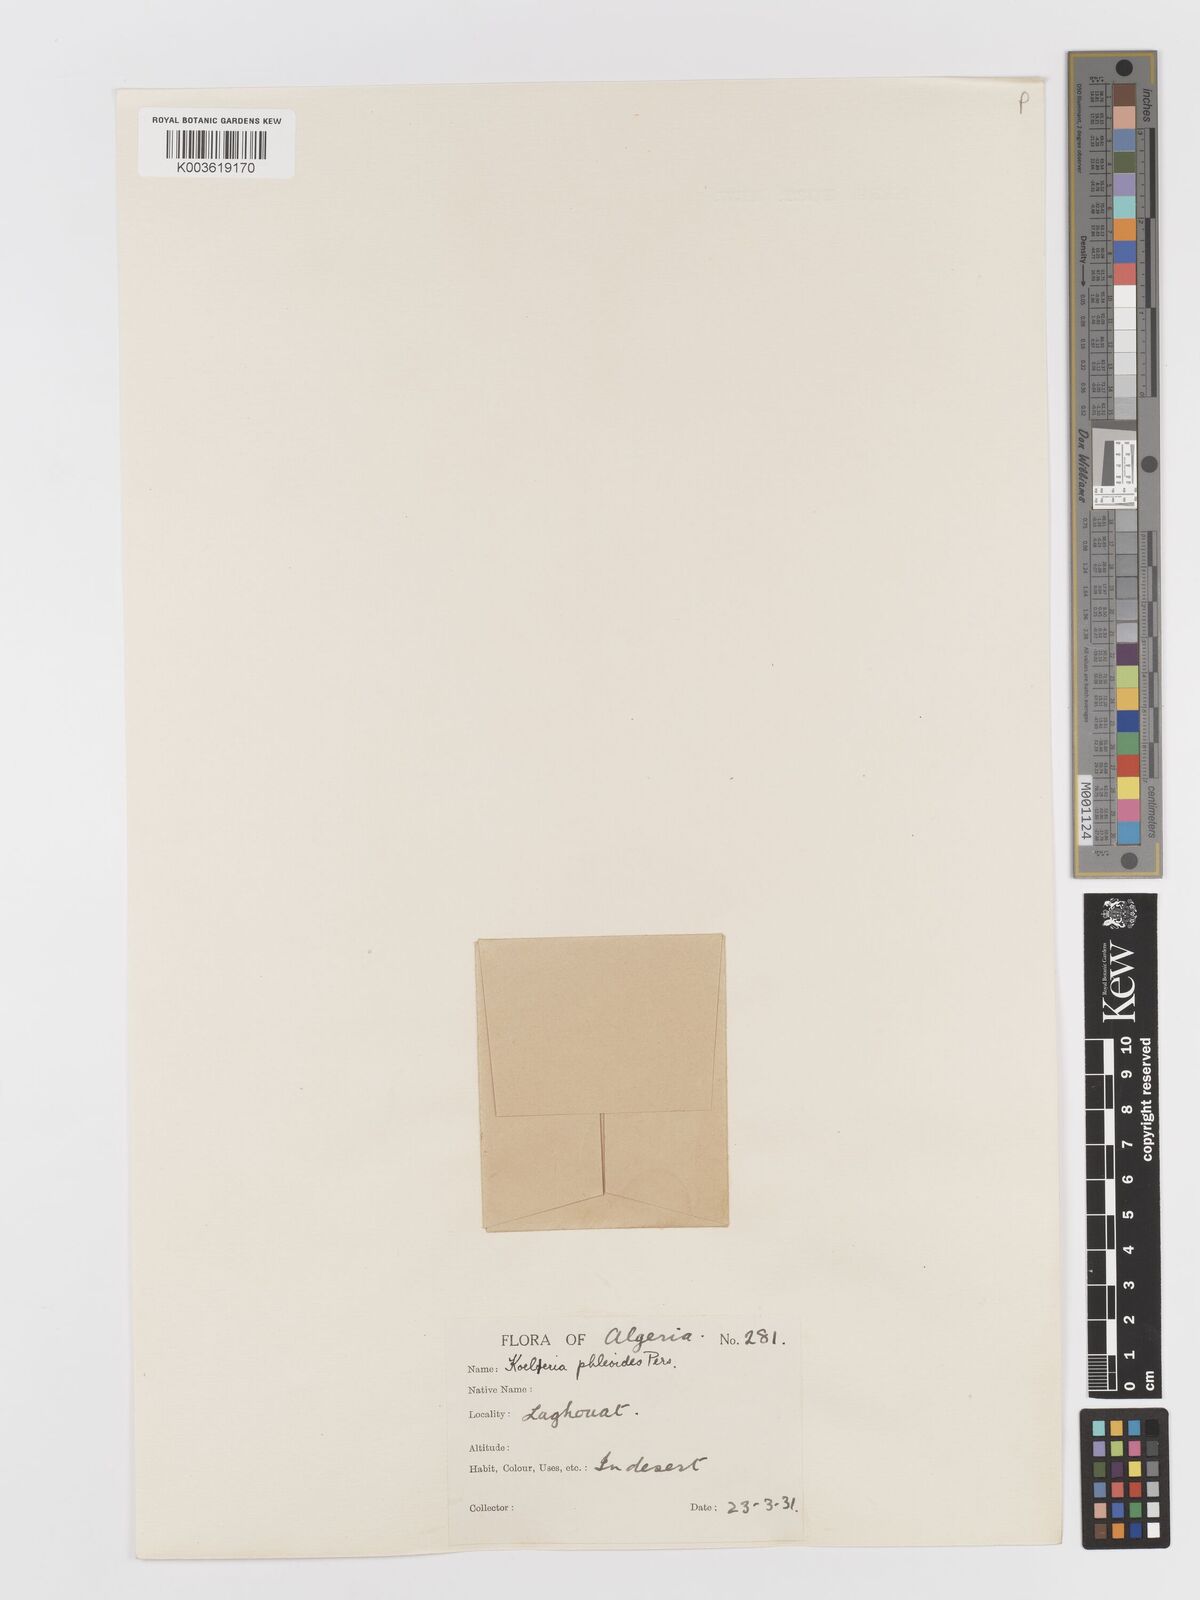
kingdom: Plantae
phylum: Tracheophyta
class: Liliopsida
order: Poales
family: Poaceae
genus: Rostraria
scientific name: Rostraria cristata
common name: Mediterranean hair-grass
